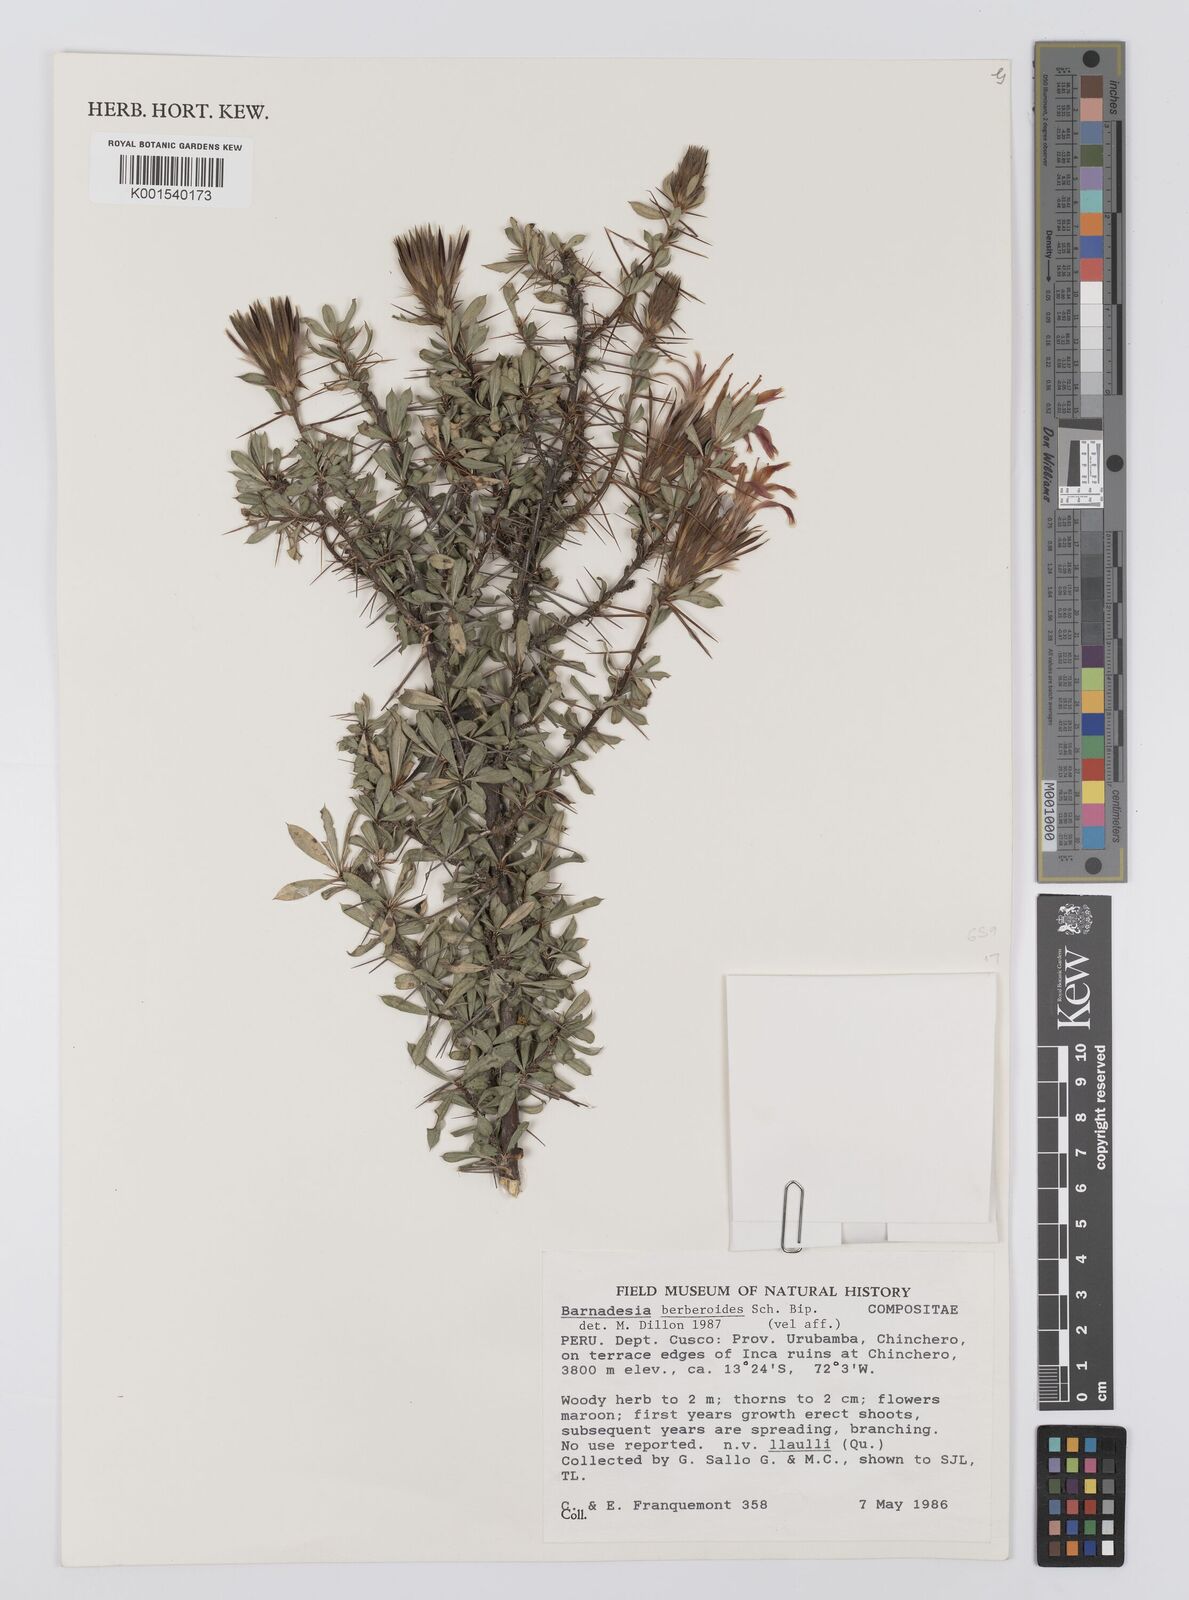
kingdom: Plantae
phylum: Tracheophyta
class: Magnoliopsida
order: Asterales
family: Asteraceae
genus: Barnadesia
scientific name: Barnadesia
